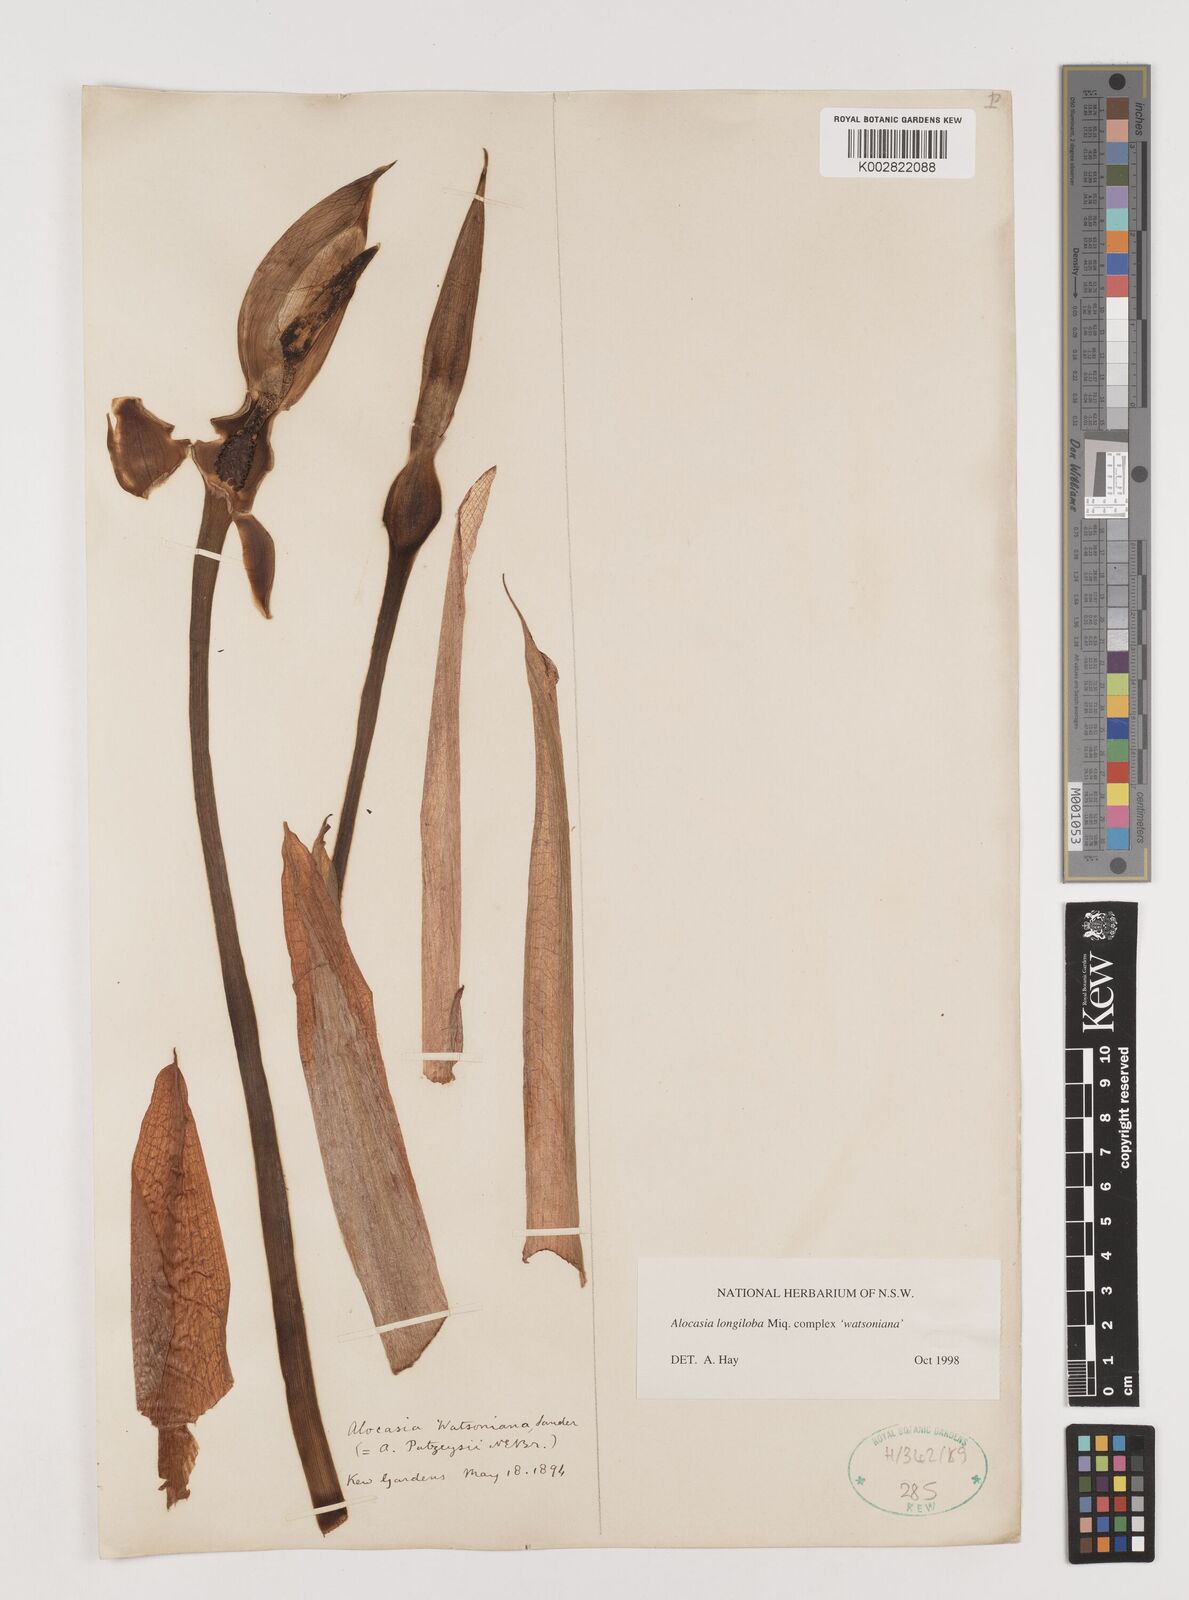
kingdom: Plantae
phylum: Tracheophyta
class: Liliopsida
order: Alismatales
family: Araceae
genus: Alocasia
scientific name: Alocasia longiloba
